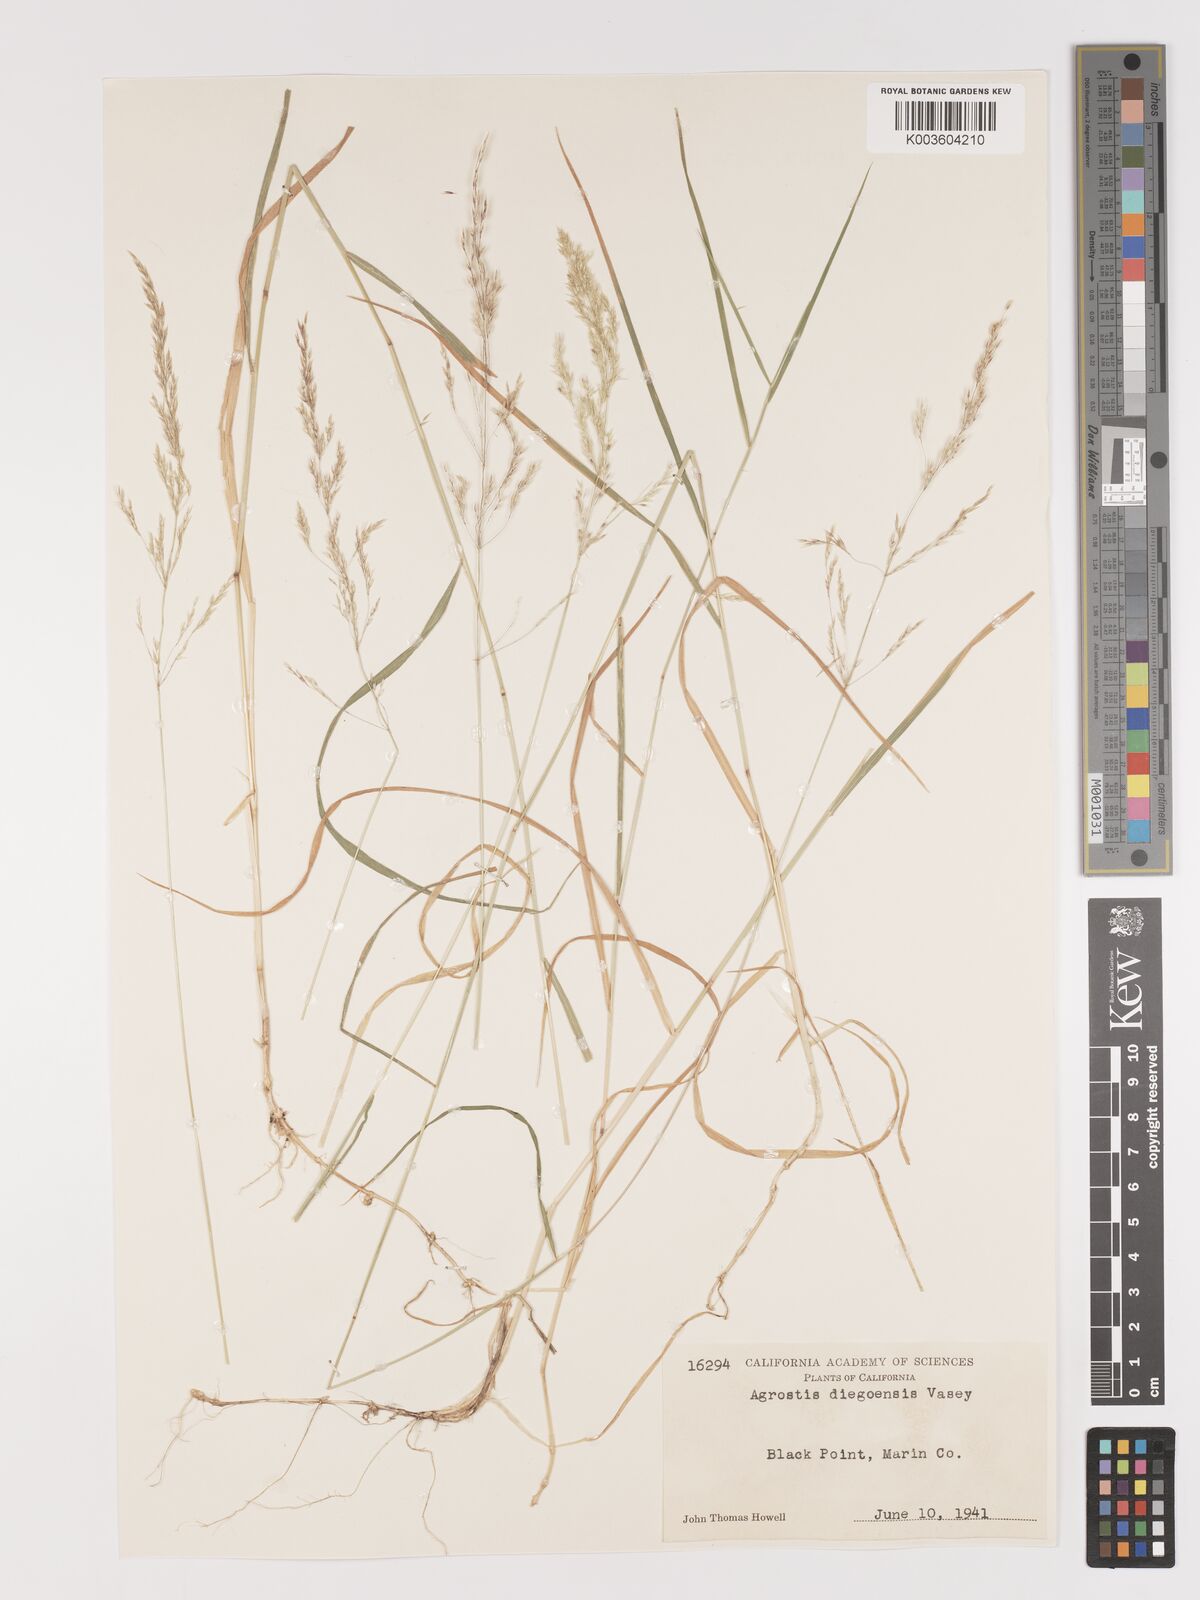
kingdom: Plantae
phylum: Tracheophyta
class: Liliopsida
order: Poales
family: Poaceae
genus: Agrostis
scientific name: Agrostis pallens
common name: Dune bent
